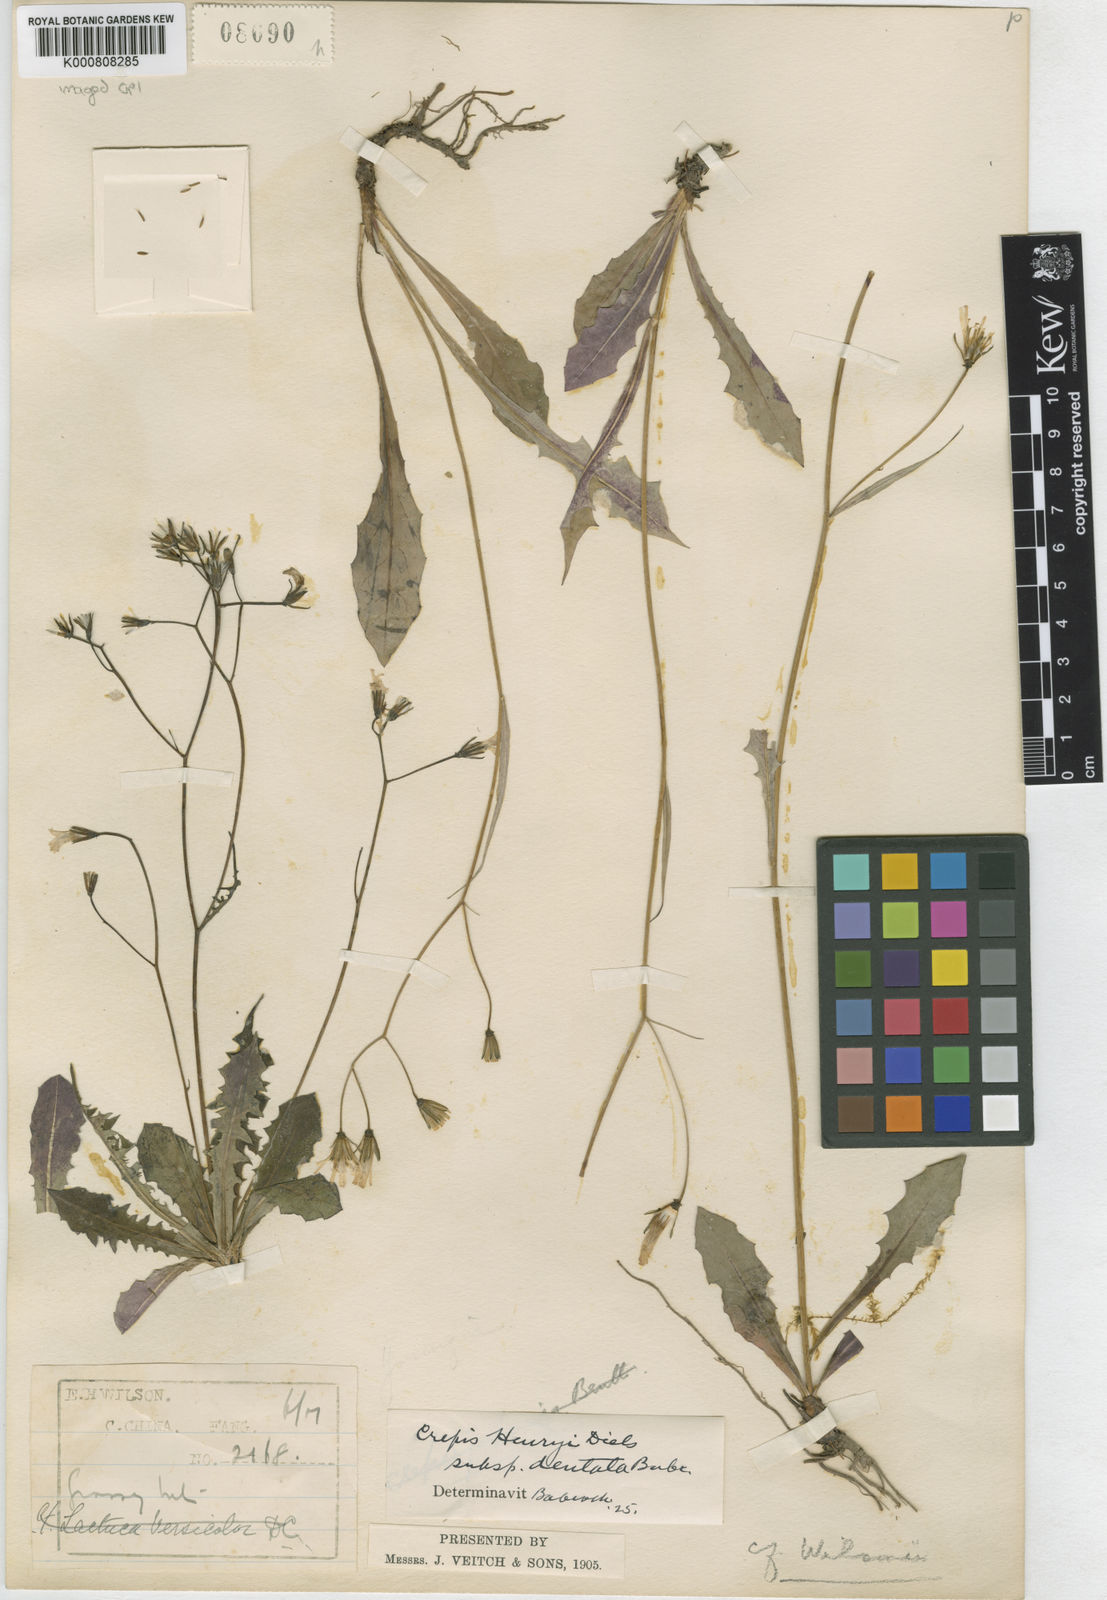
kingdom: Plantae
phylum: Tracheophyta
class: Magnoliopsida
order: Asterales
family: Asteraceae
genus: Youngia
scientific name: Youngia wilsonii
